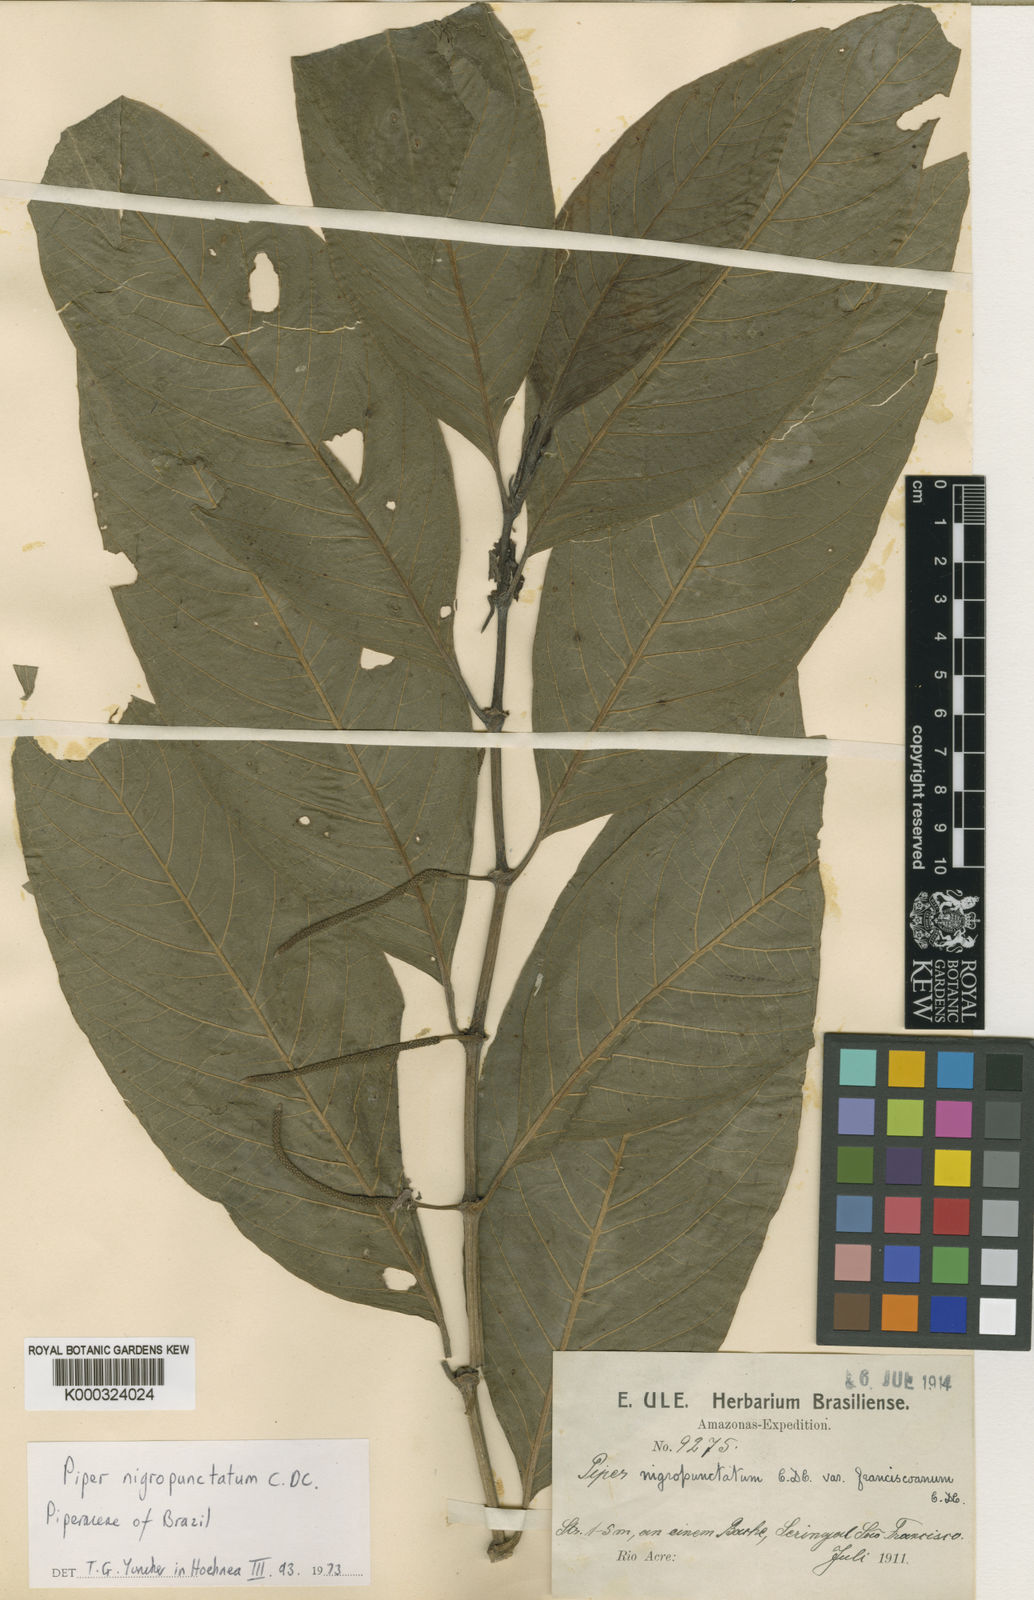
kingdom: Plantae
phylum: Tracheophyta
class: Magnoliopsida
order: Piperales
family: Piperaceae
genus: Piper
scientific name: Piper dumosum
